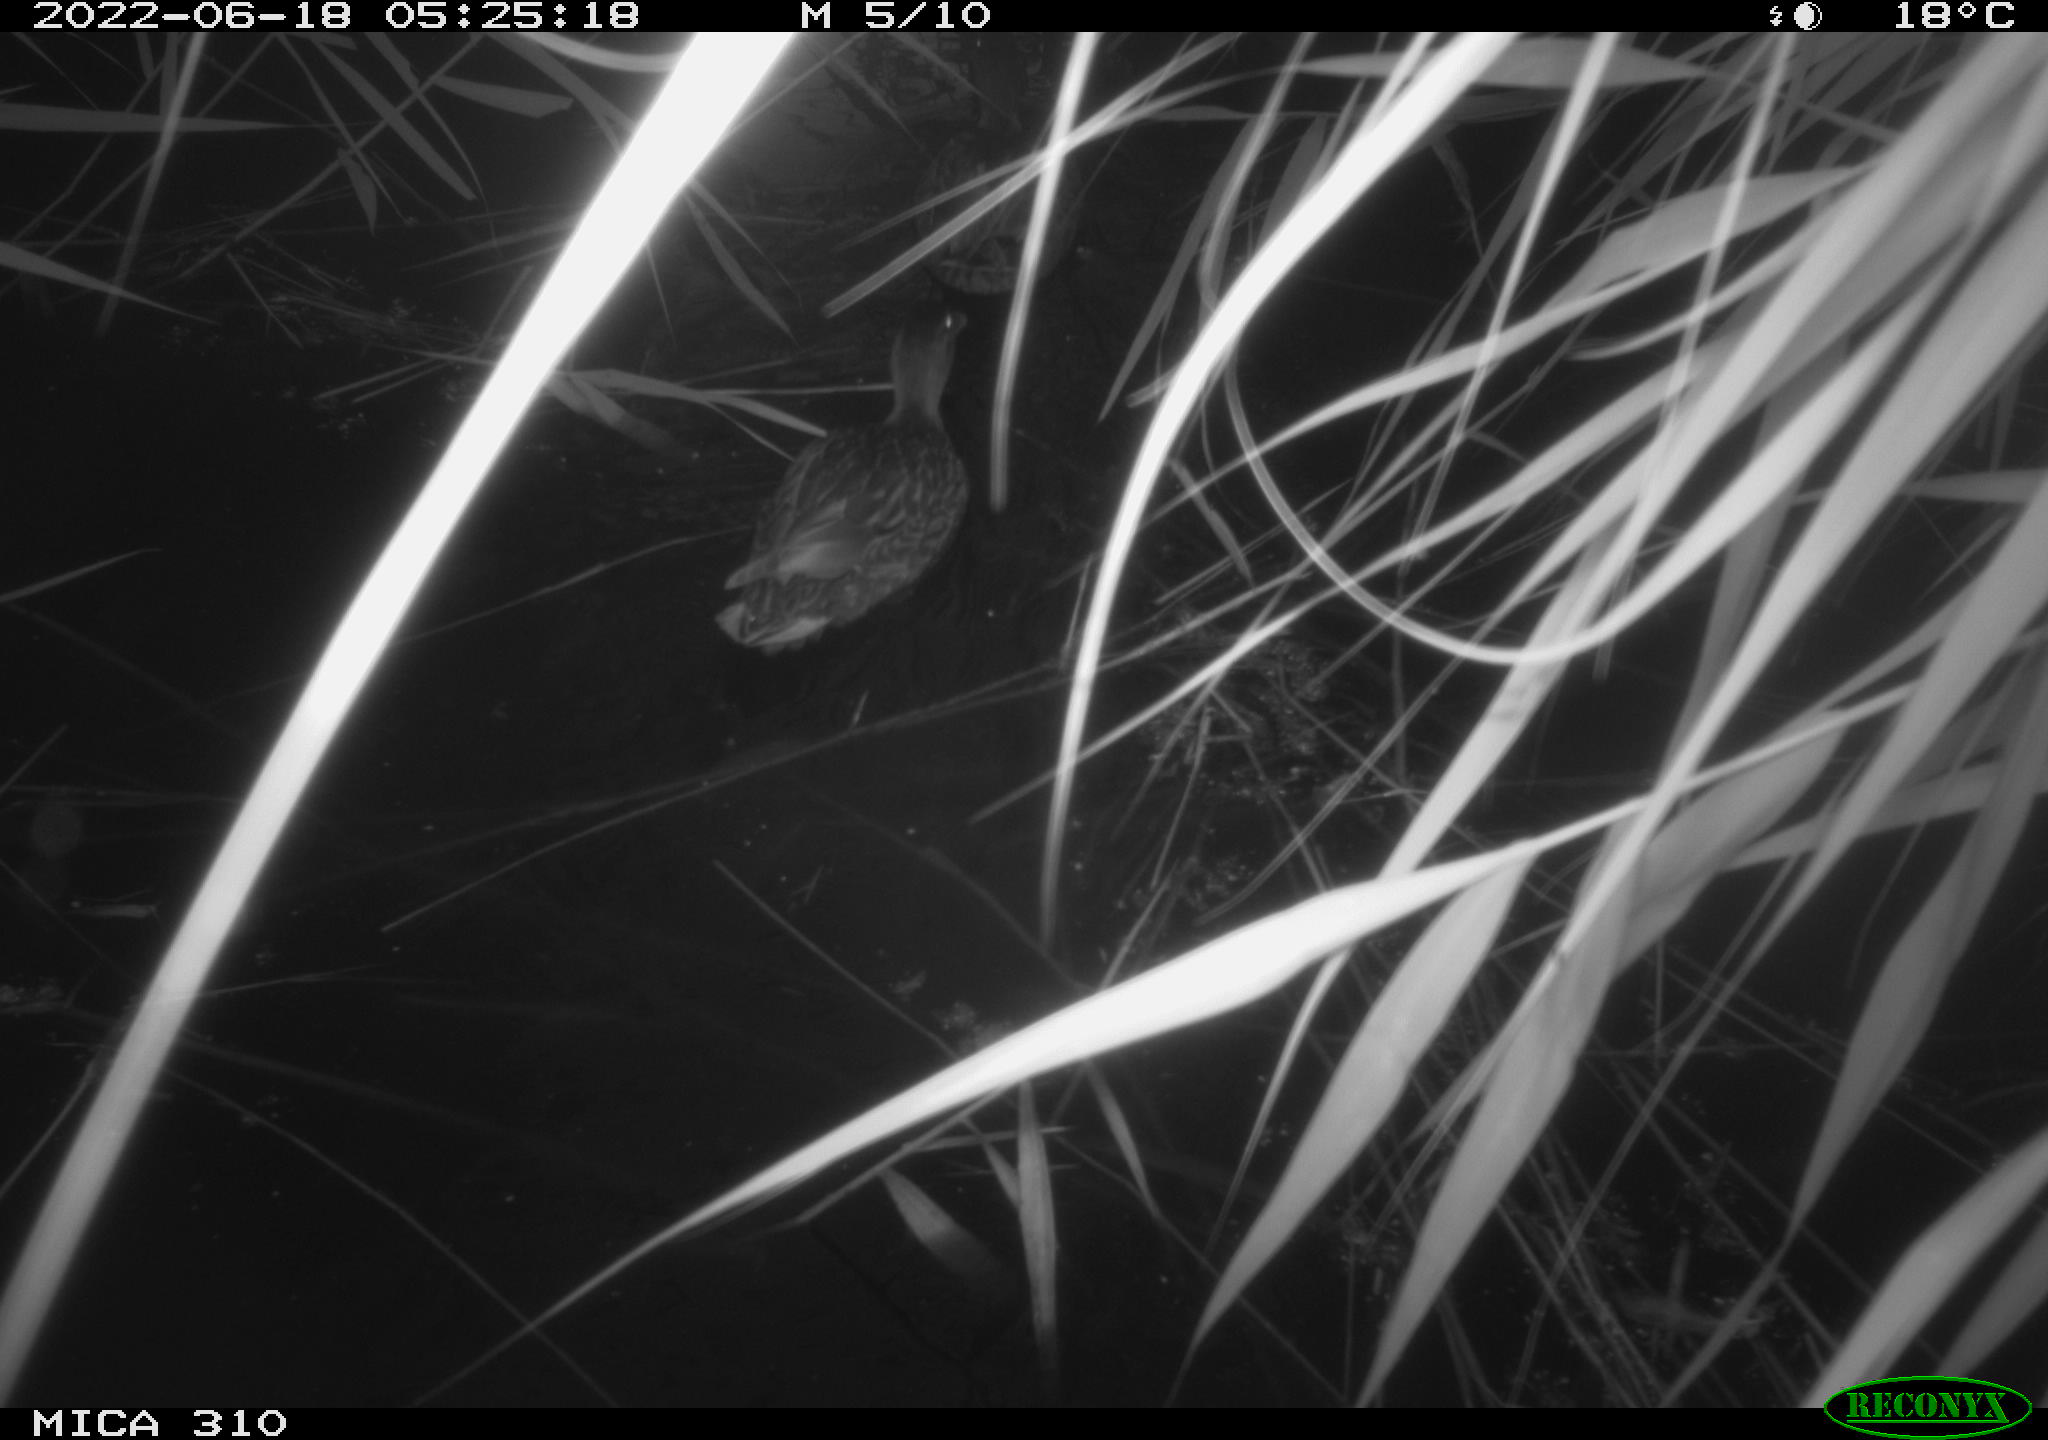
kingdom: Animalia
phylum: Chordata
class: Aves
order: Anseriformes
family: Anatidae
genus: Anas
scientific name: Anas platyrhynchos
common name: Mallard
